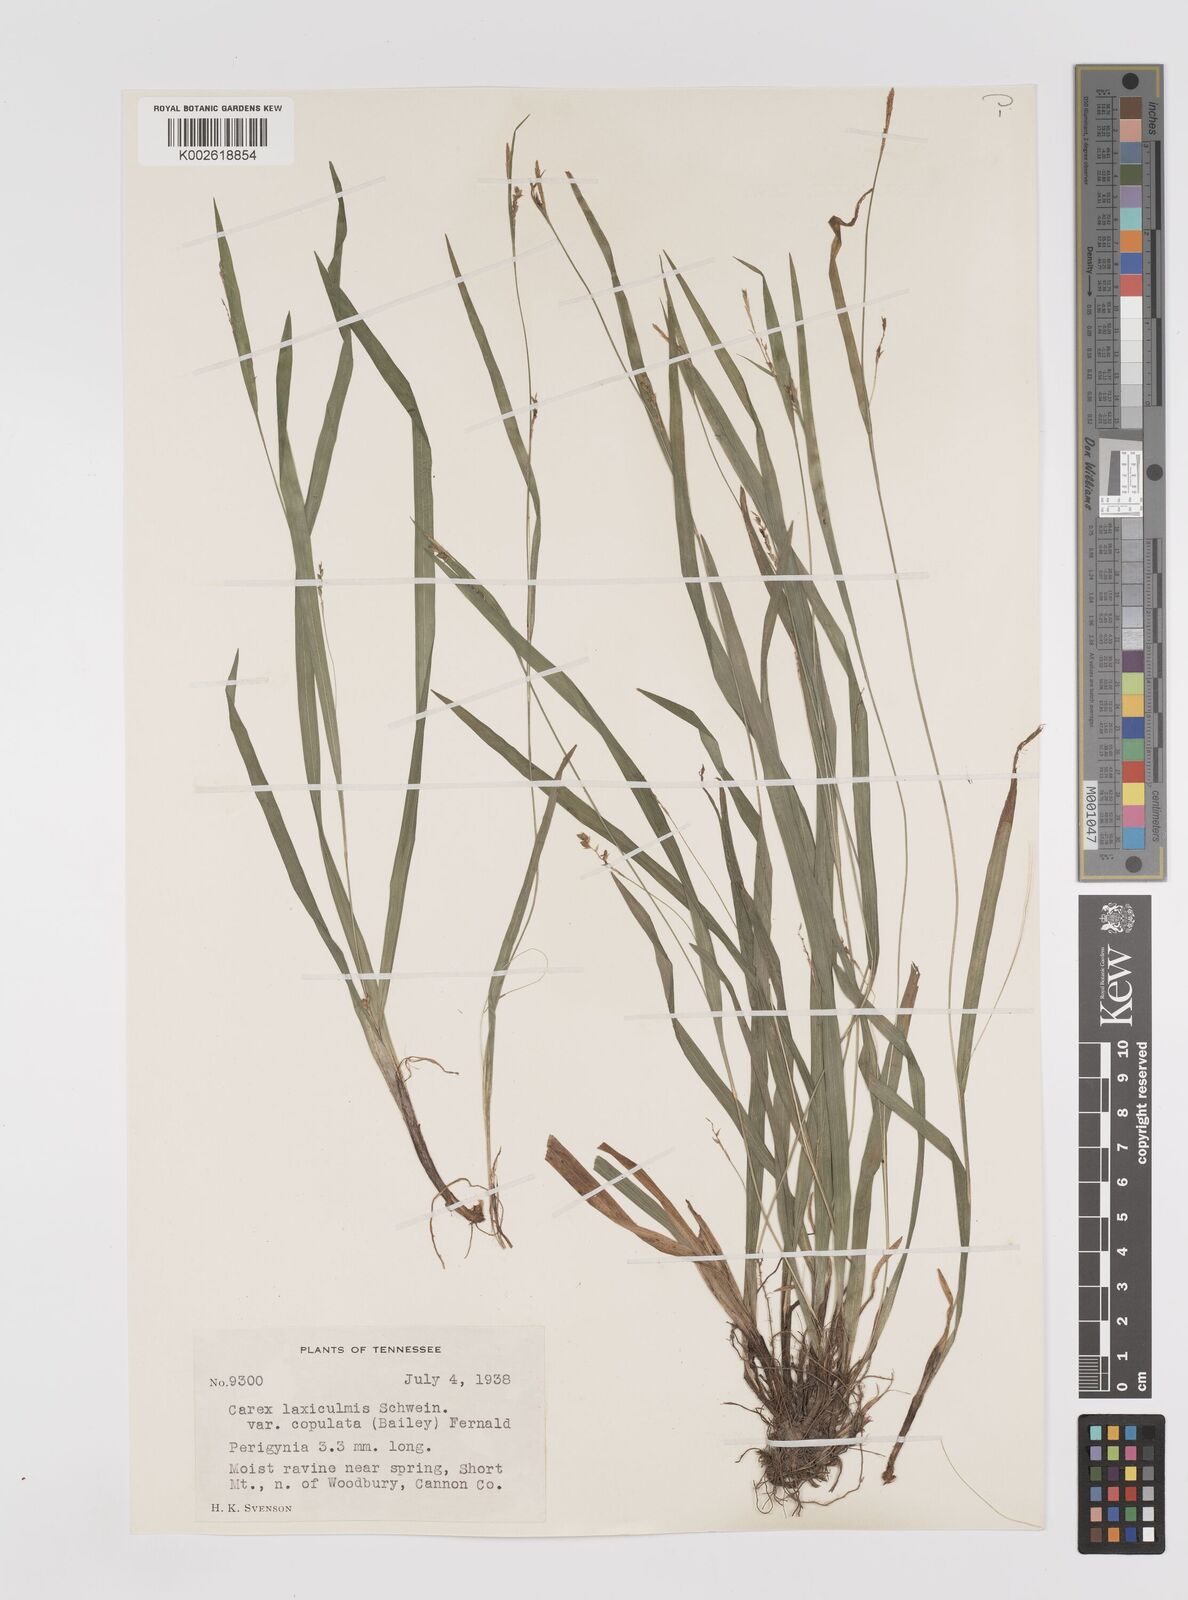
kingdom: Plantae
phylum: Tracheophyta
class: Liliopsida
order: Poales
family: Cyperaceae
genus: Carex
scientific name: Carex laxiculmis
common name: Spreading sedge
